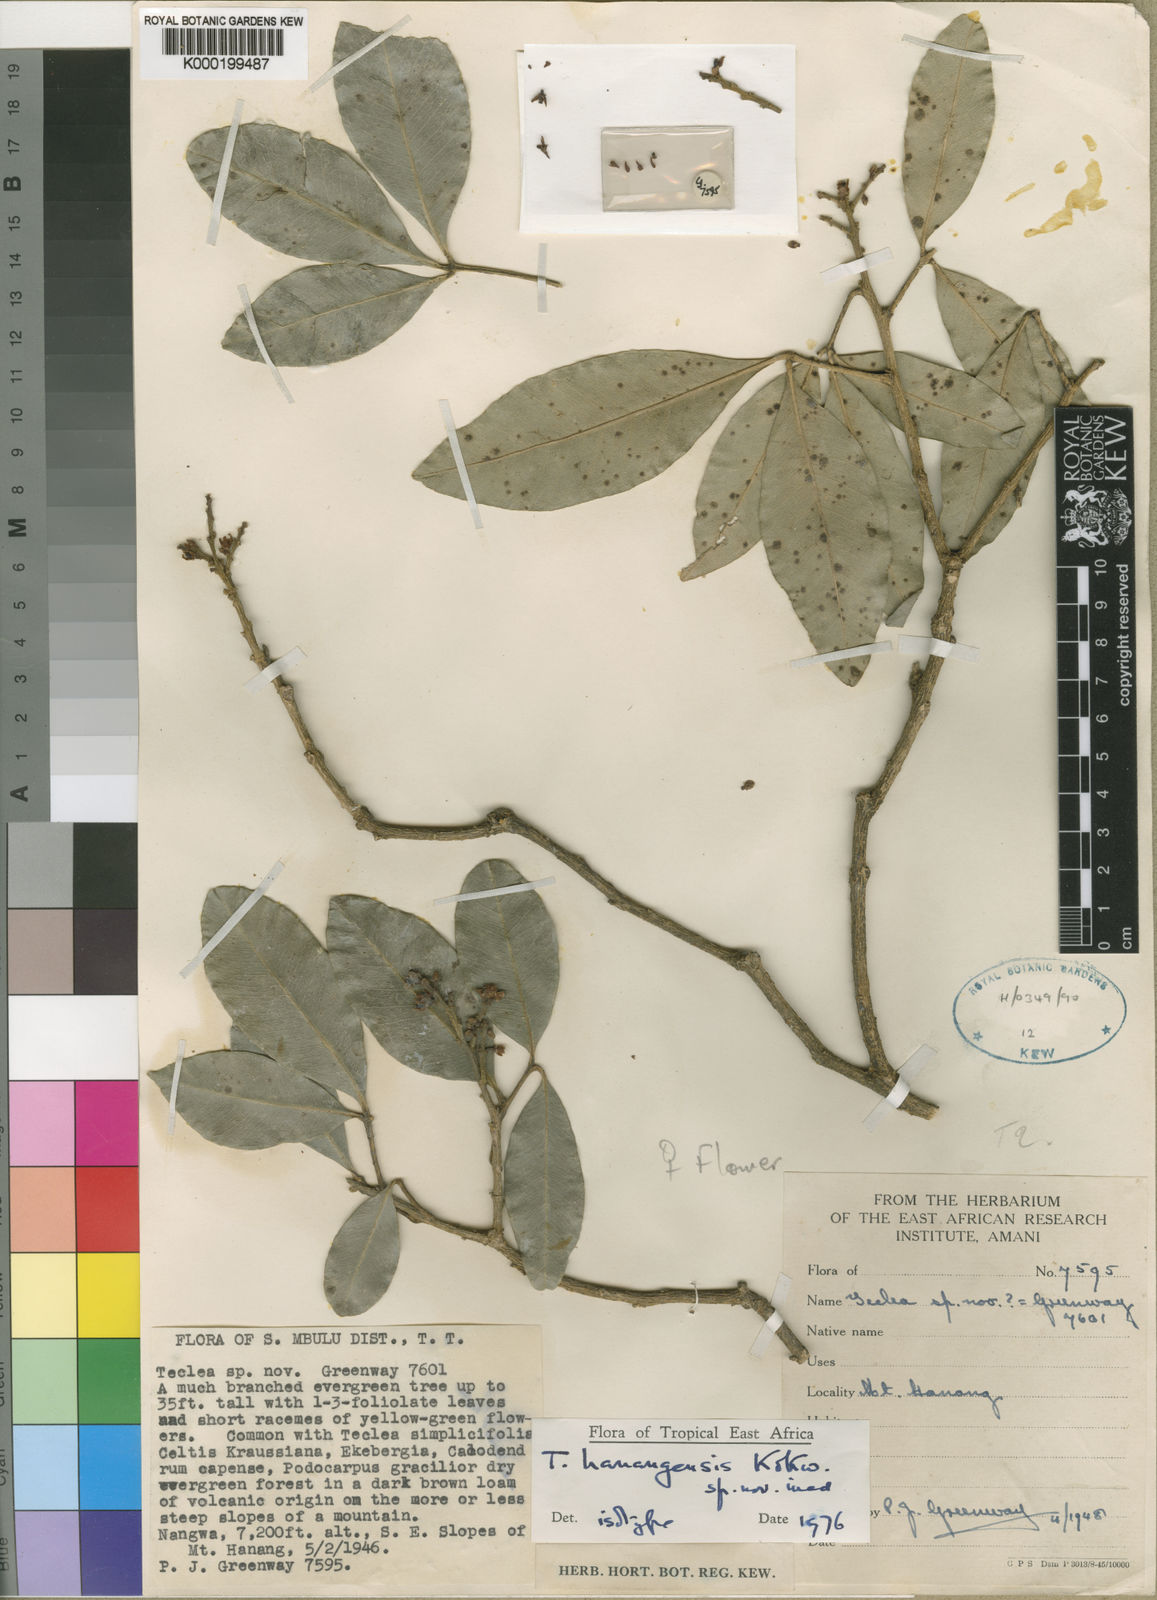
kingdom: Plantae
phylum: Tracheophyta
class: Magnoliopsida
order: Sapindales
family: Rutaceae
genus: Vepris
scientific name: Vepris hanangensis
